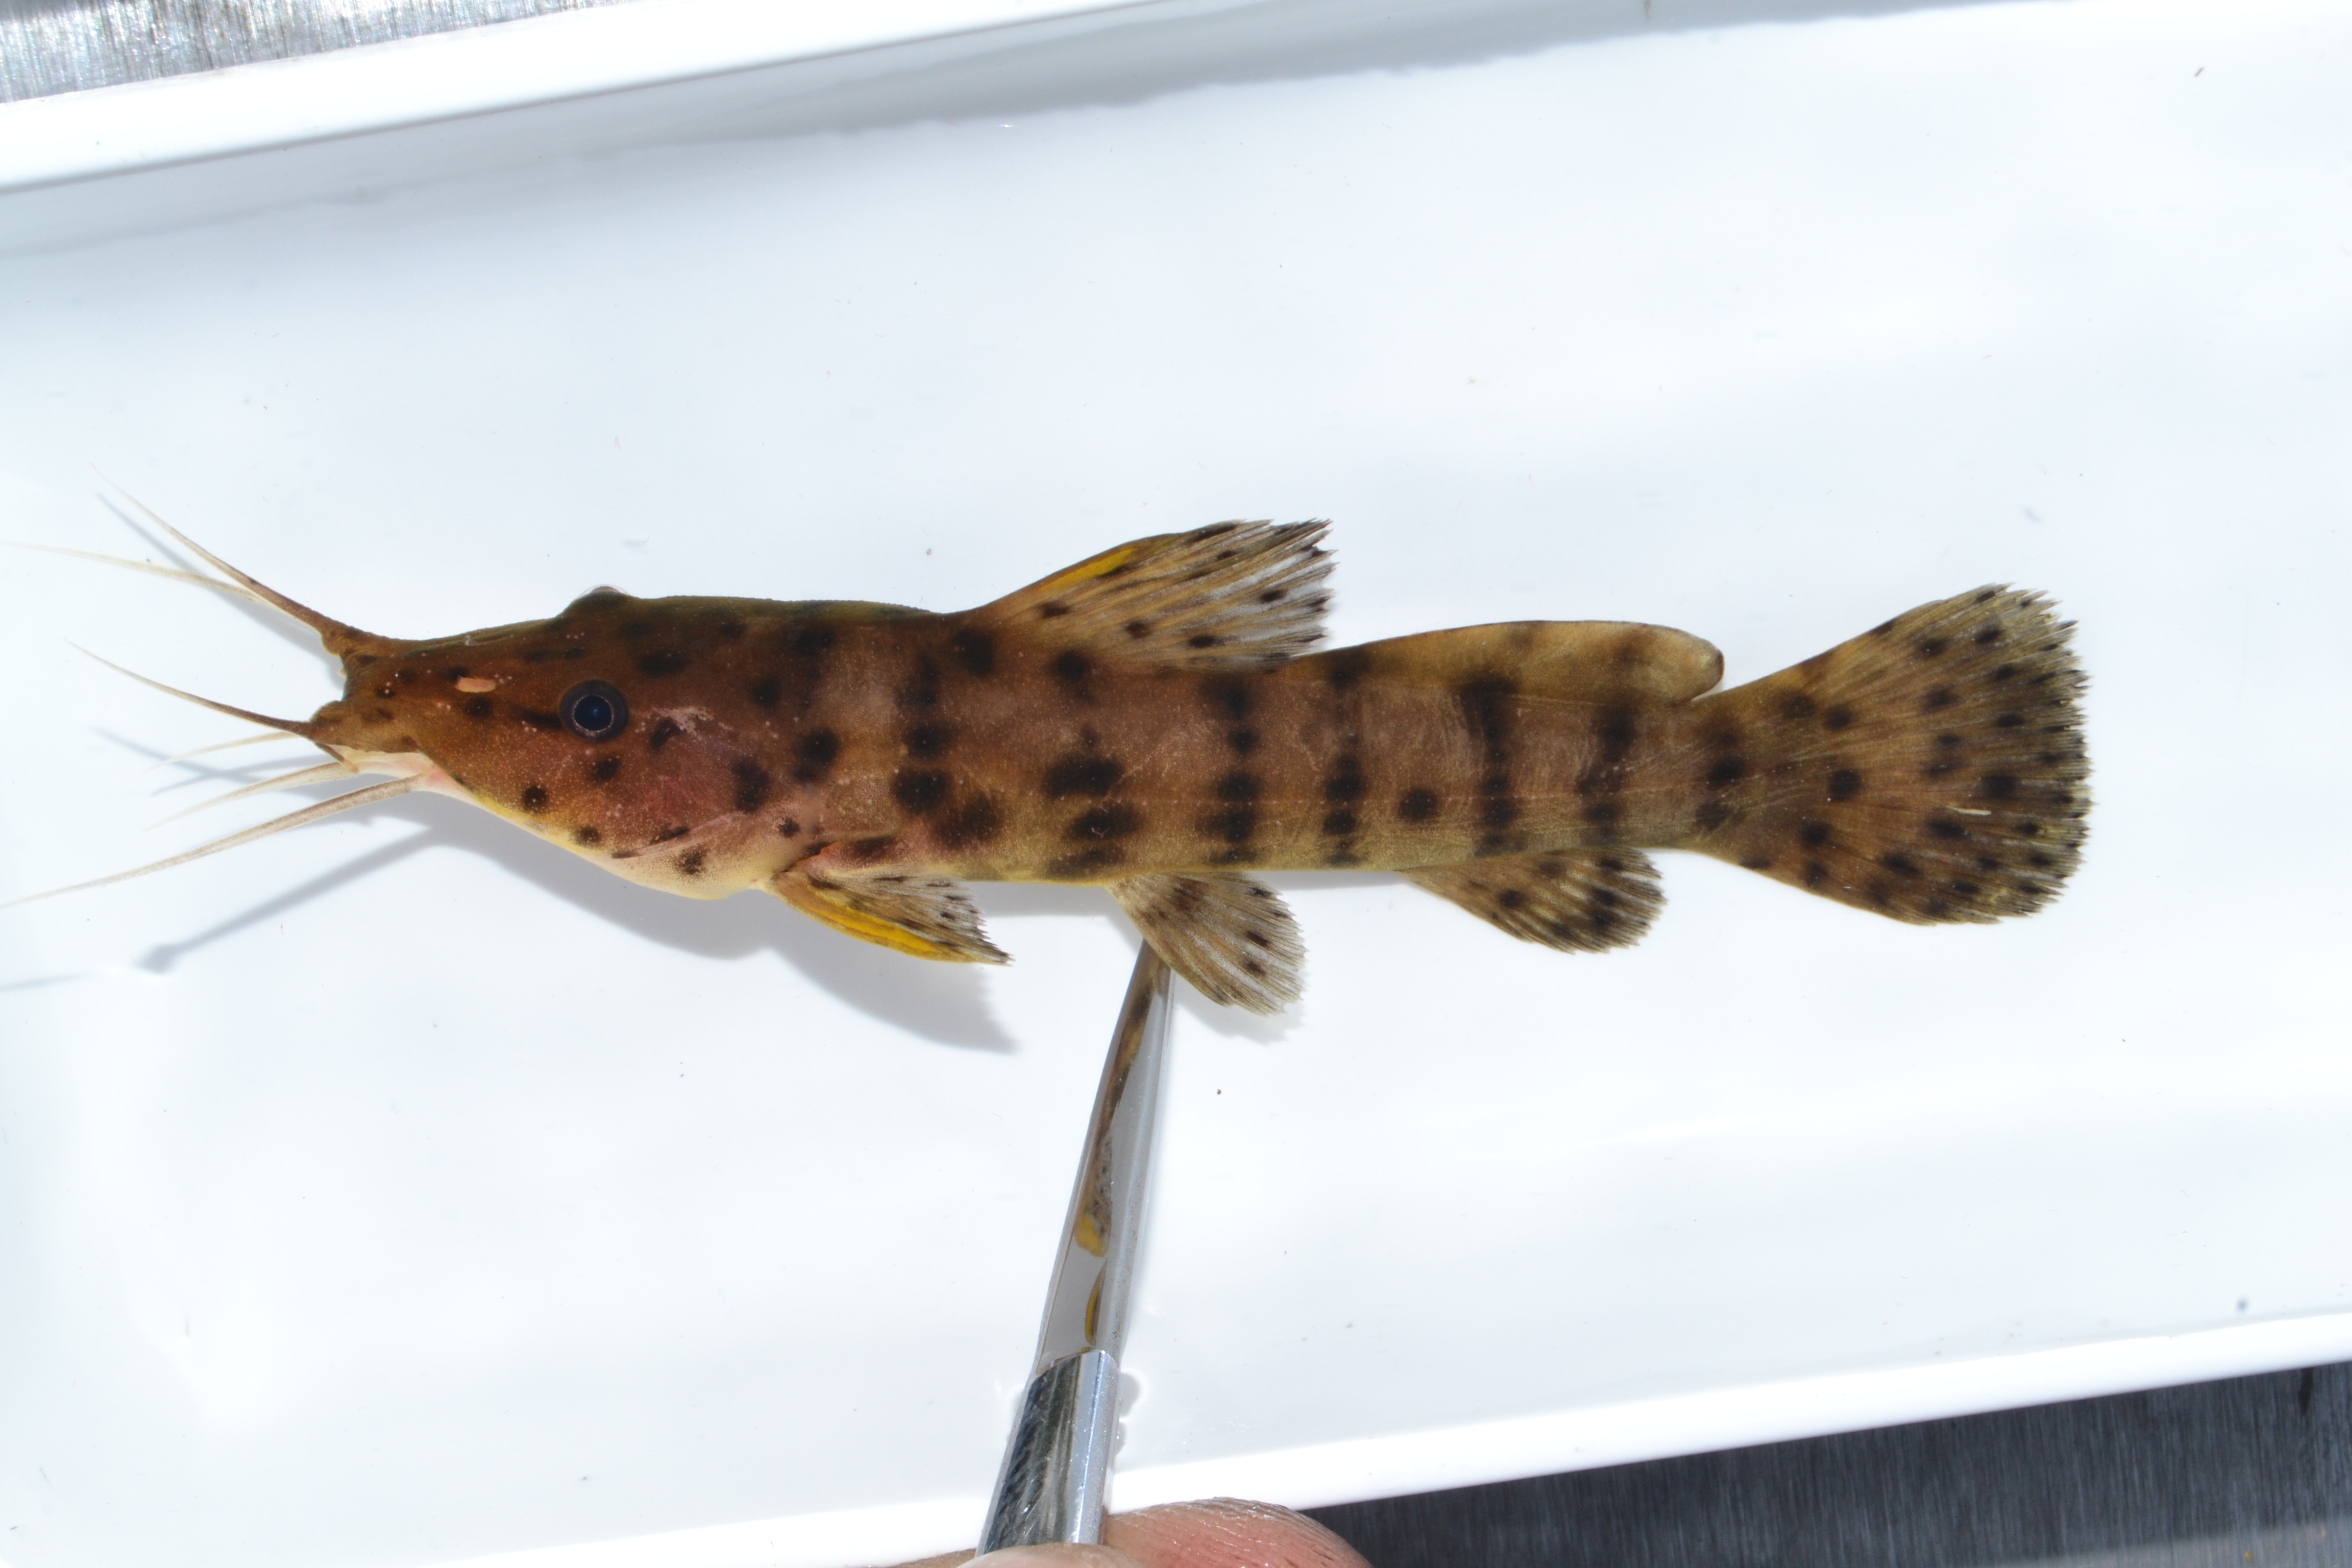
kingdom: Animalia
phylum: Chordata
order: Siluriformes
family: Claroteidae
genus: Parauchenoglanis
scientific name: Parauchenoglanis ngamensis
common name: Zambezi grunter
